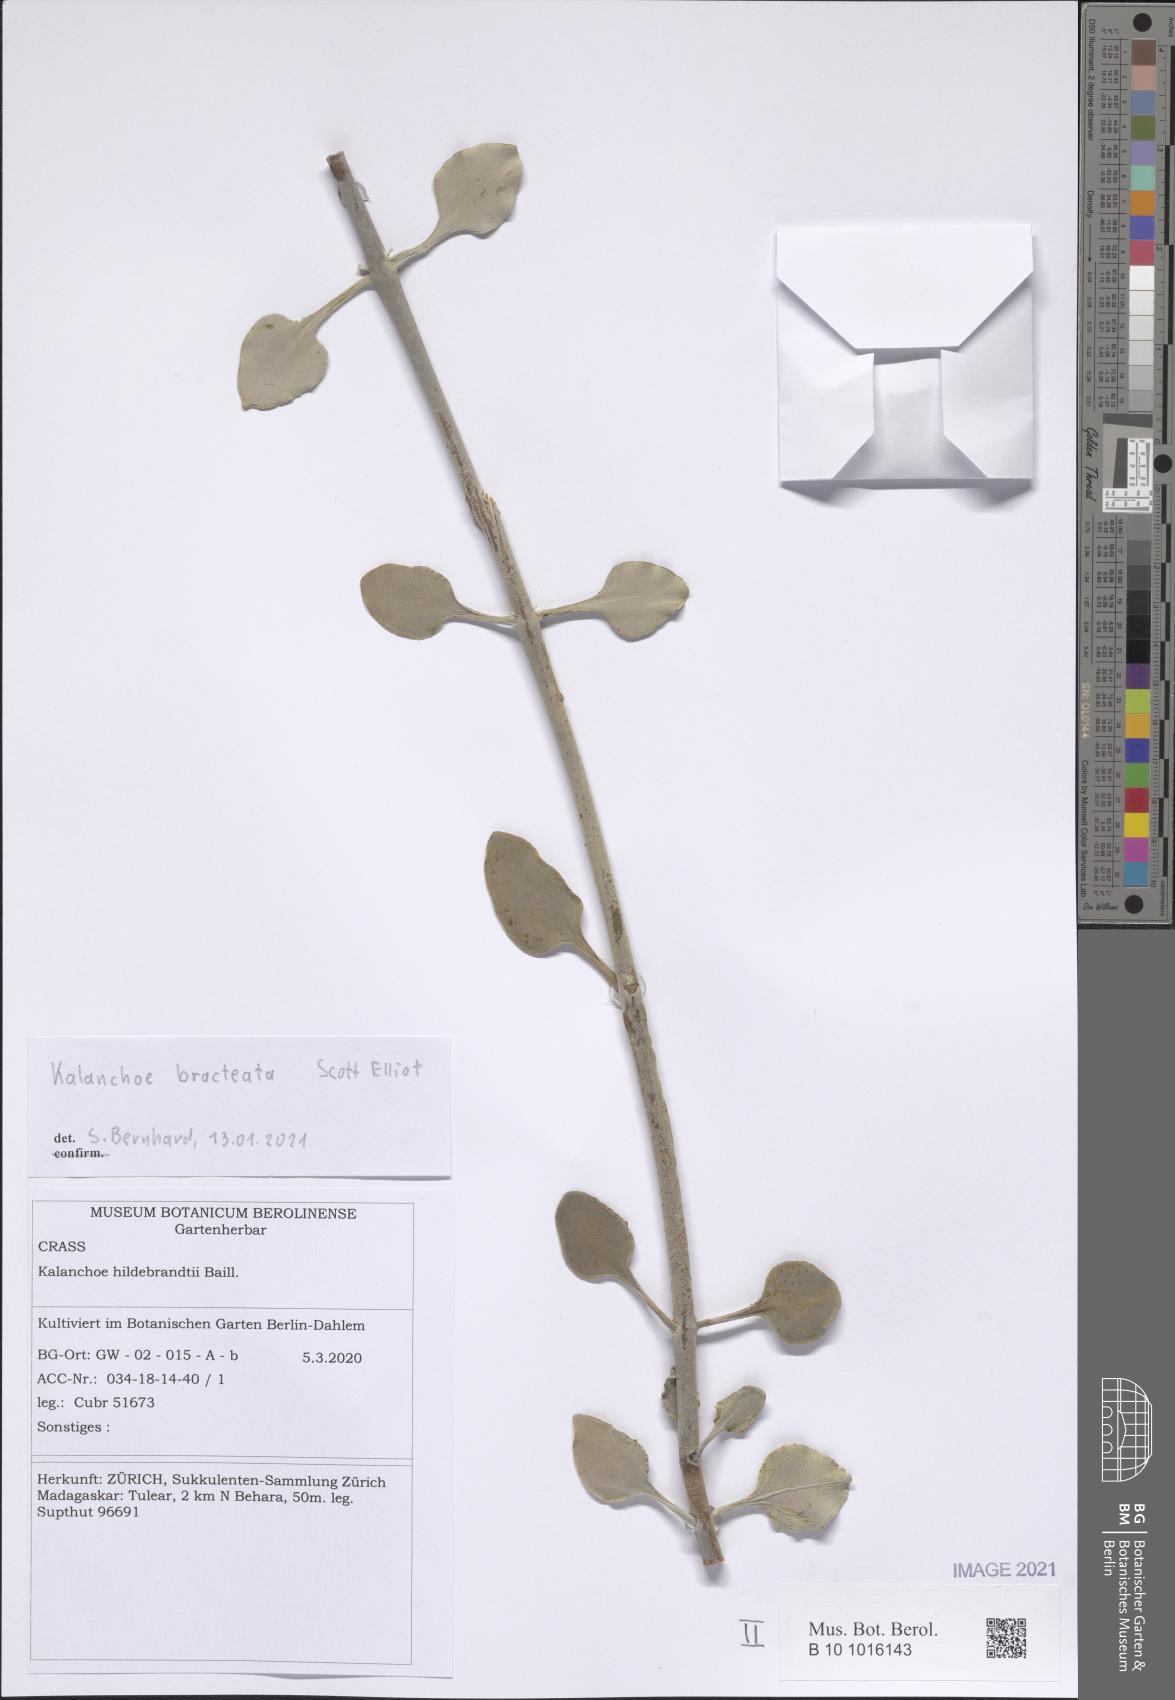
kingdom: Plantae
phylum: Tracheophyta
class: Magnoliopsida
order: Saxifragales
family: Crassulaceae
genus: Kalanchoe
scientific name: Kalanchoe bracteata
